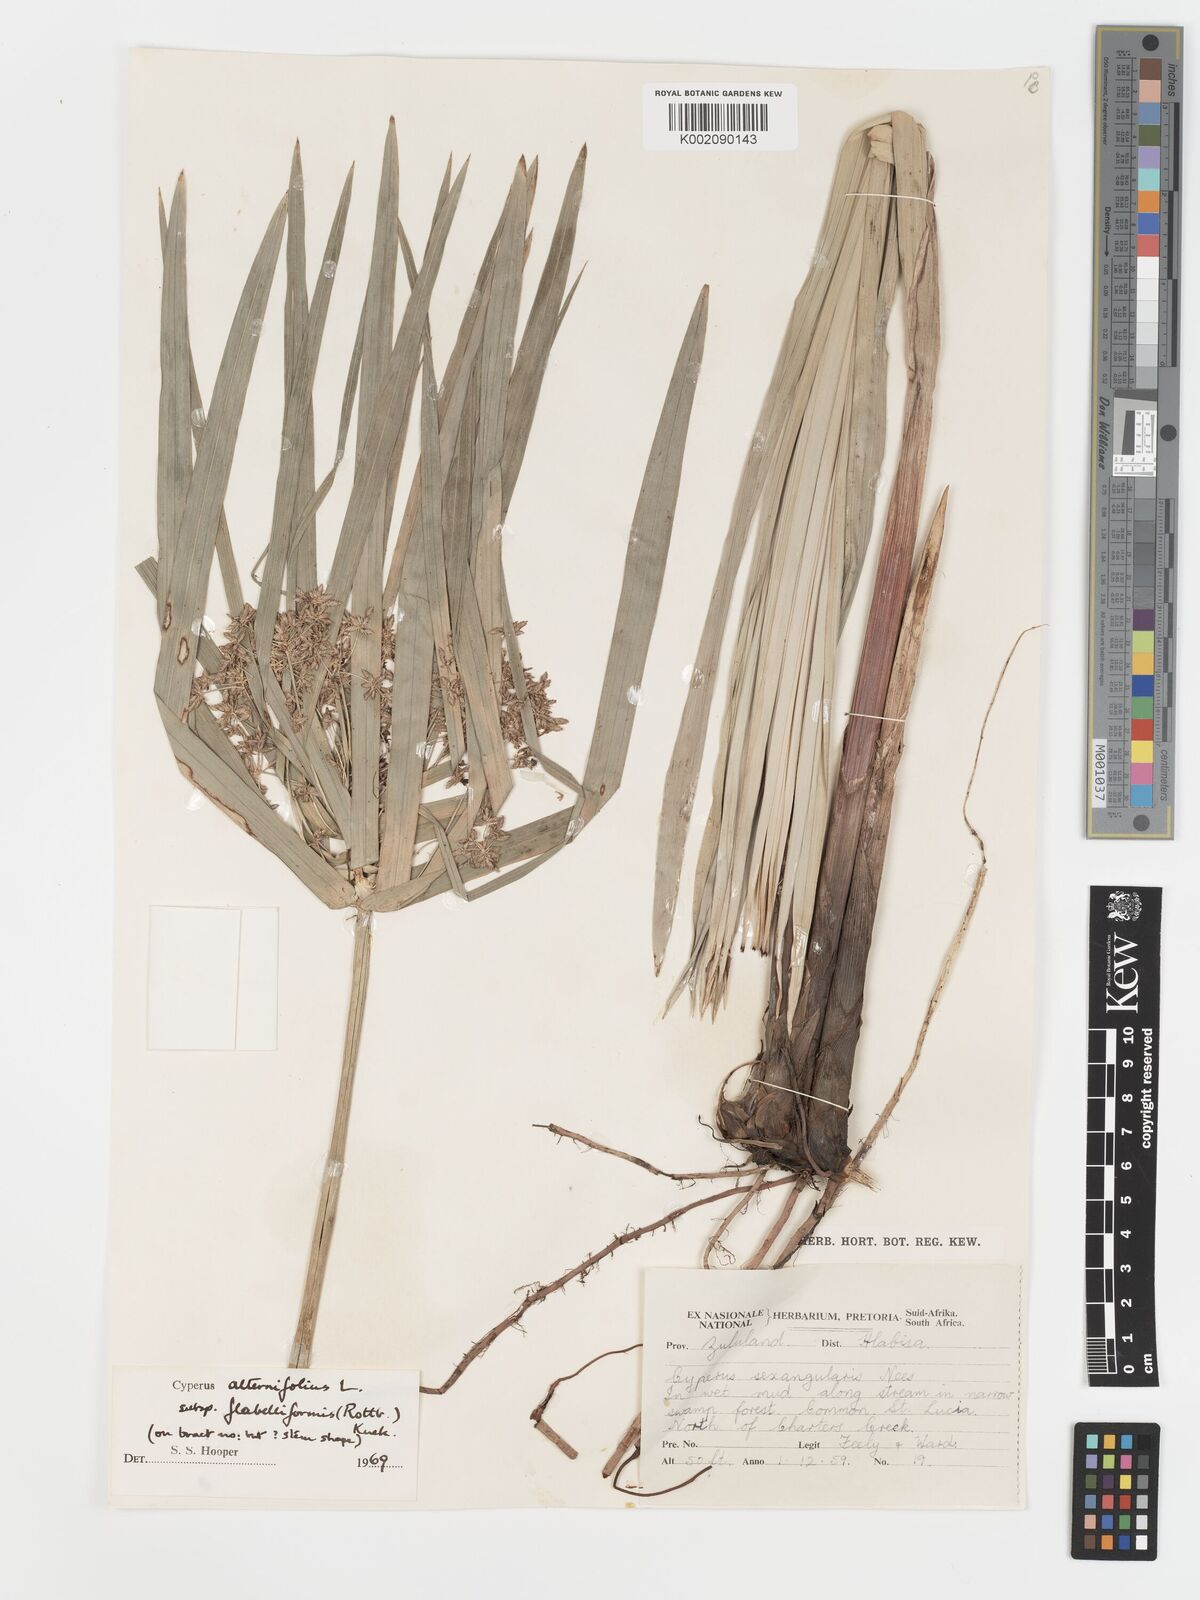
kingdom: Plantae
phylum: Tracheophyta
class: Liliopsida
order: Poales
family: Cyperaceae
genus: Cyperus
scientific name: Cyperus alternifolius
